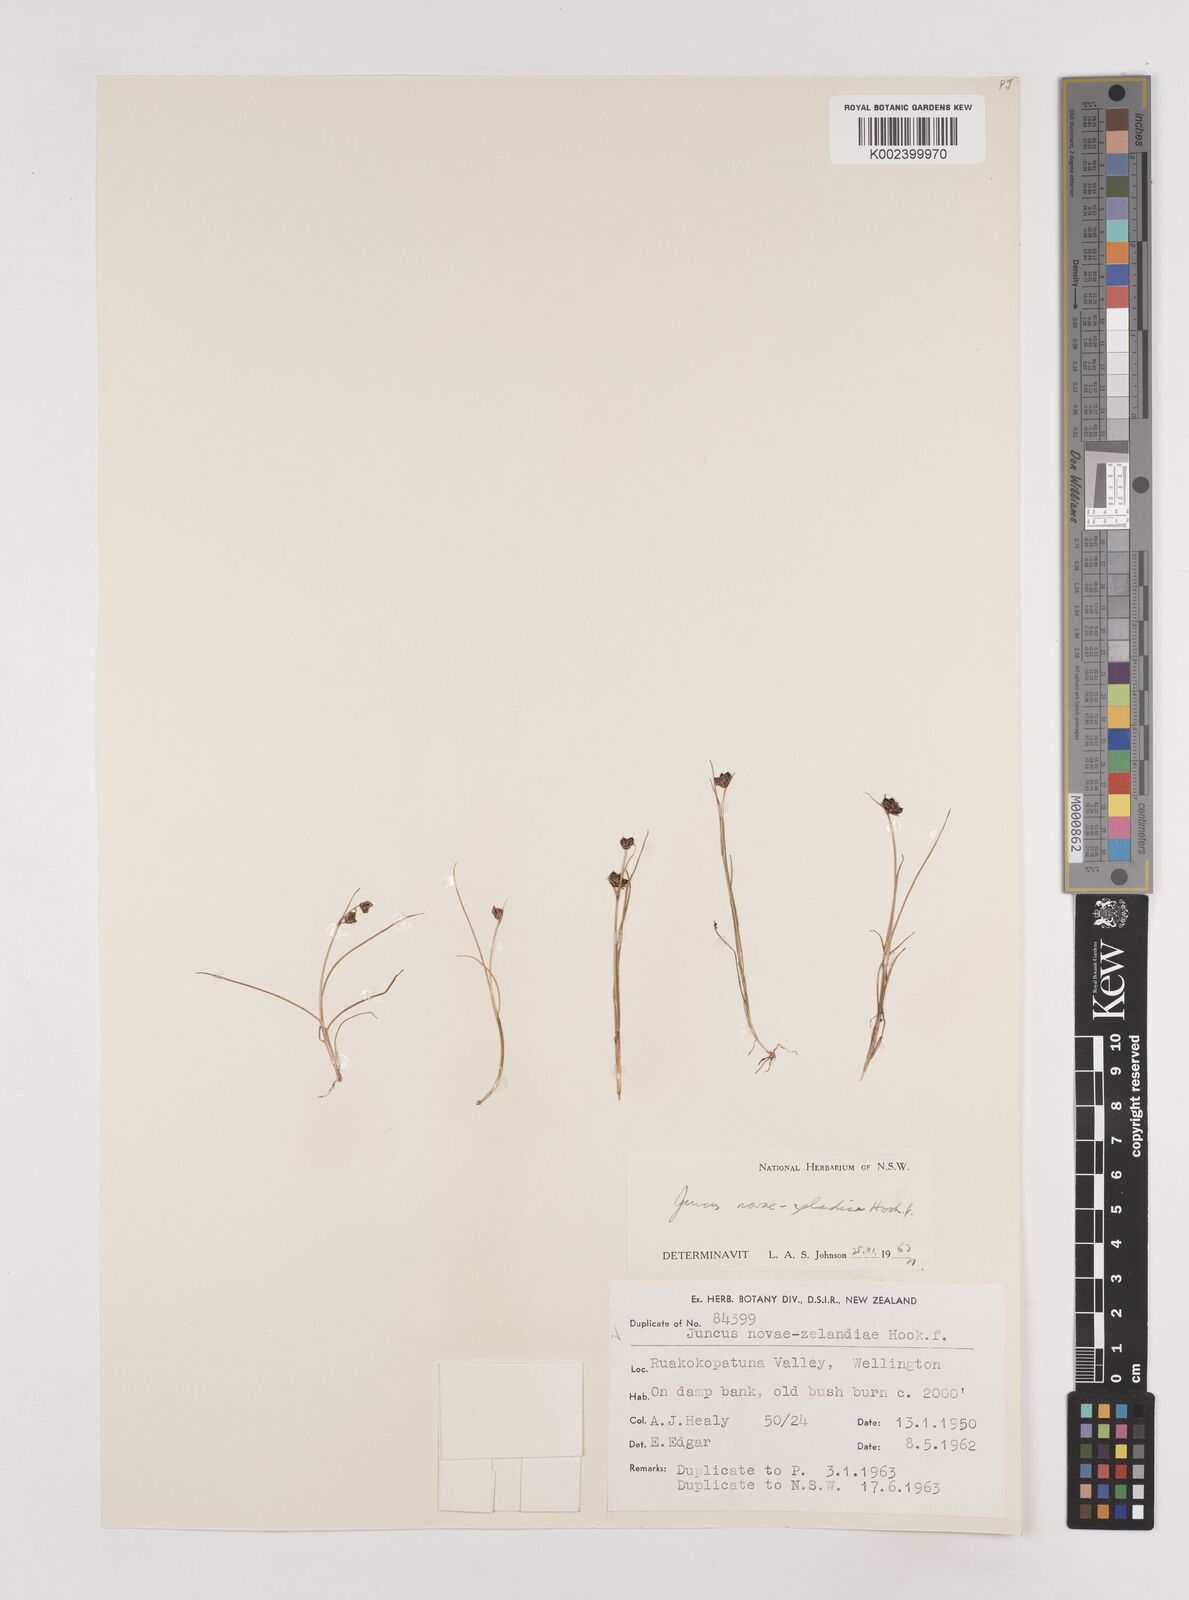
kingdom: Plantae
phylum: Tracheophyta
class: Liliopsida
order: Poales
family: Juncaceae
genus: Juncus
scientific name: Juncus novae-zelandiae
